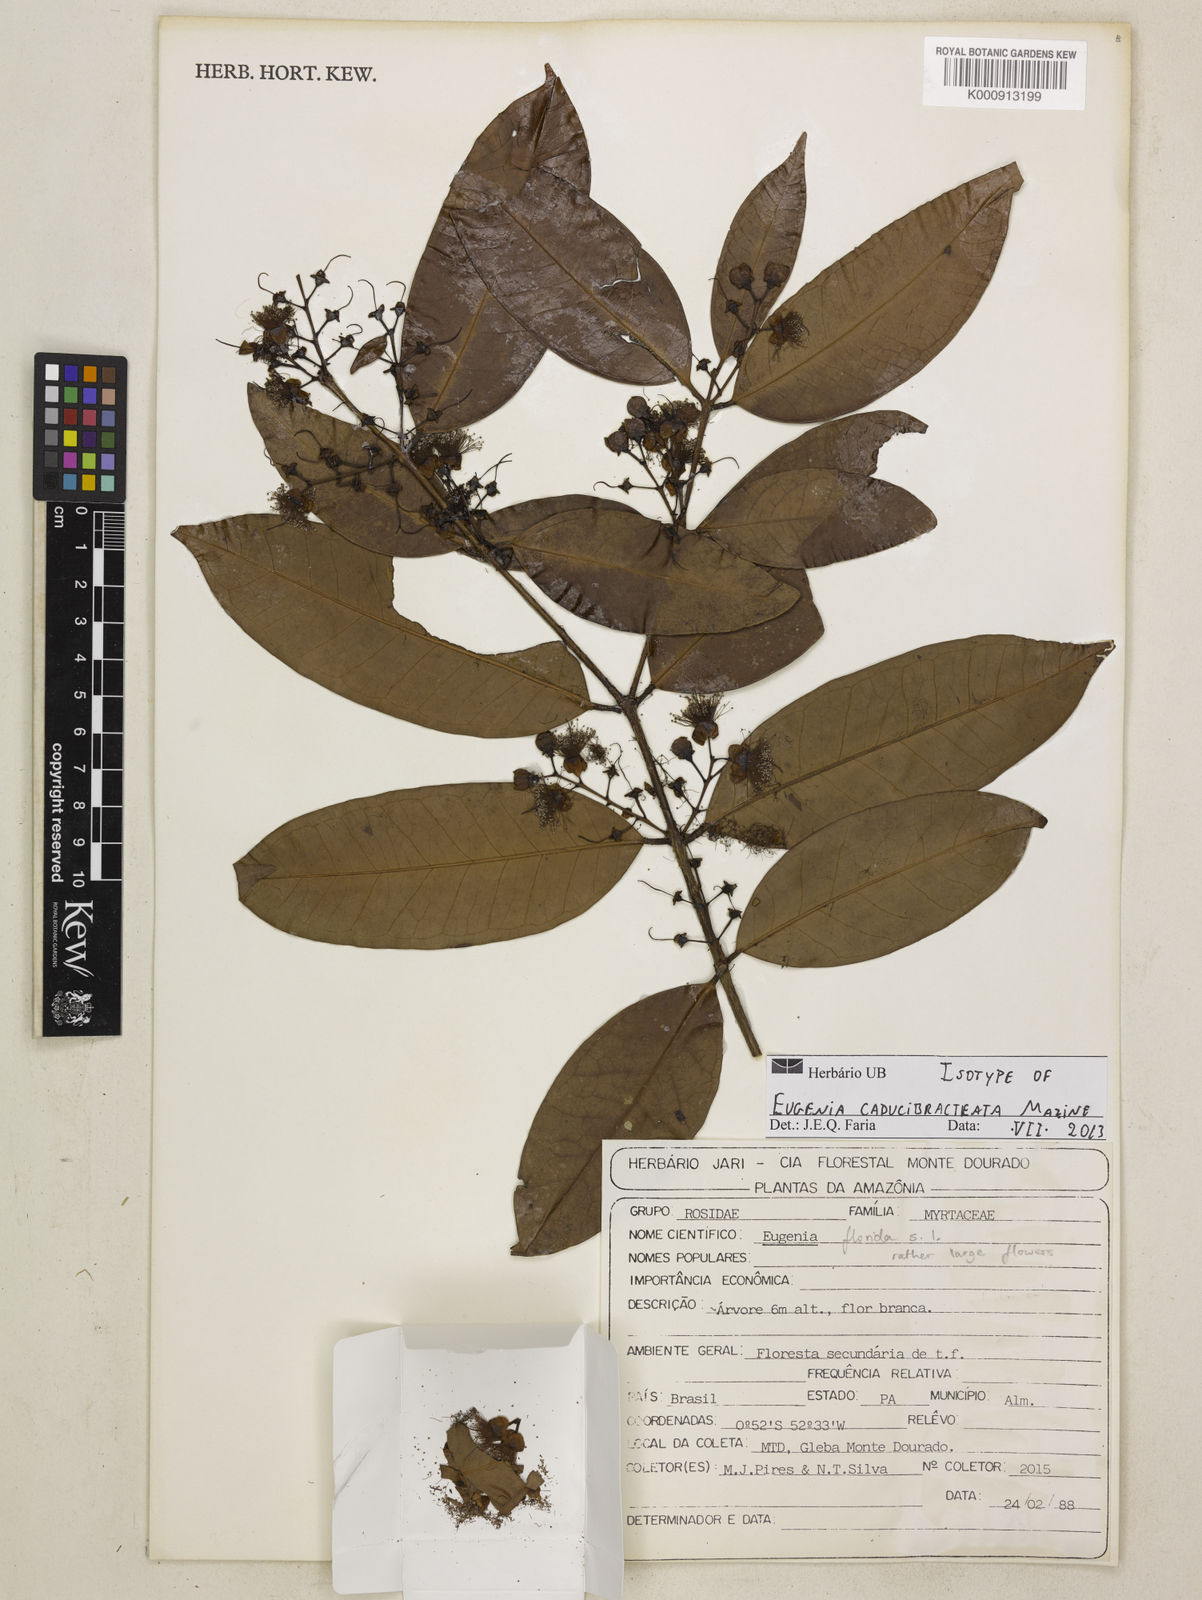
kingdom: Plantae
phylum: Tracheophyta
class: Magnoliopsida
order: Myrtales
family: Myrtaceae
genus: Eugenia
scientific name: Eugenia caducibracteata
